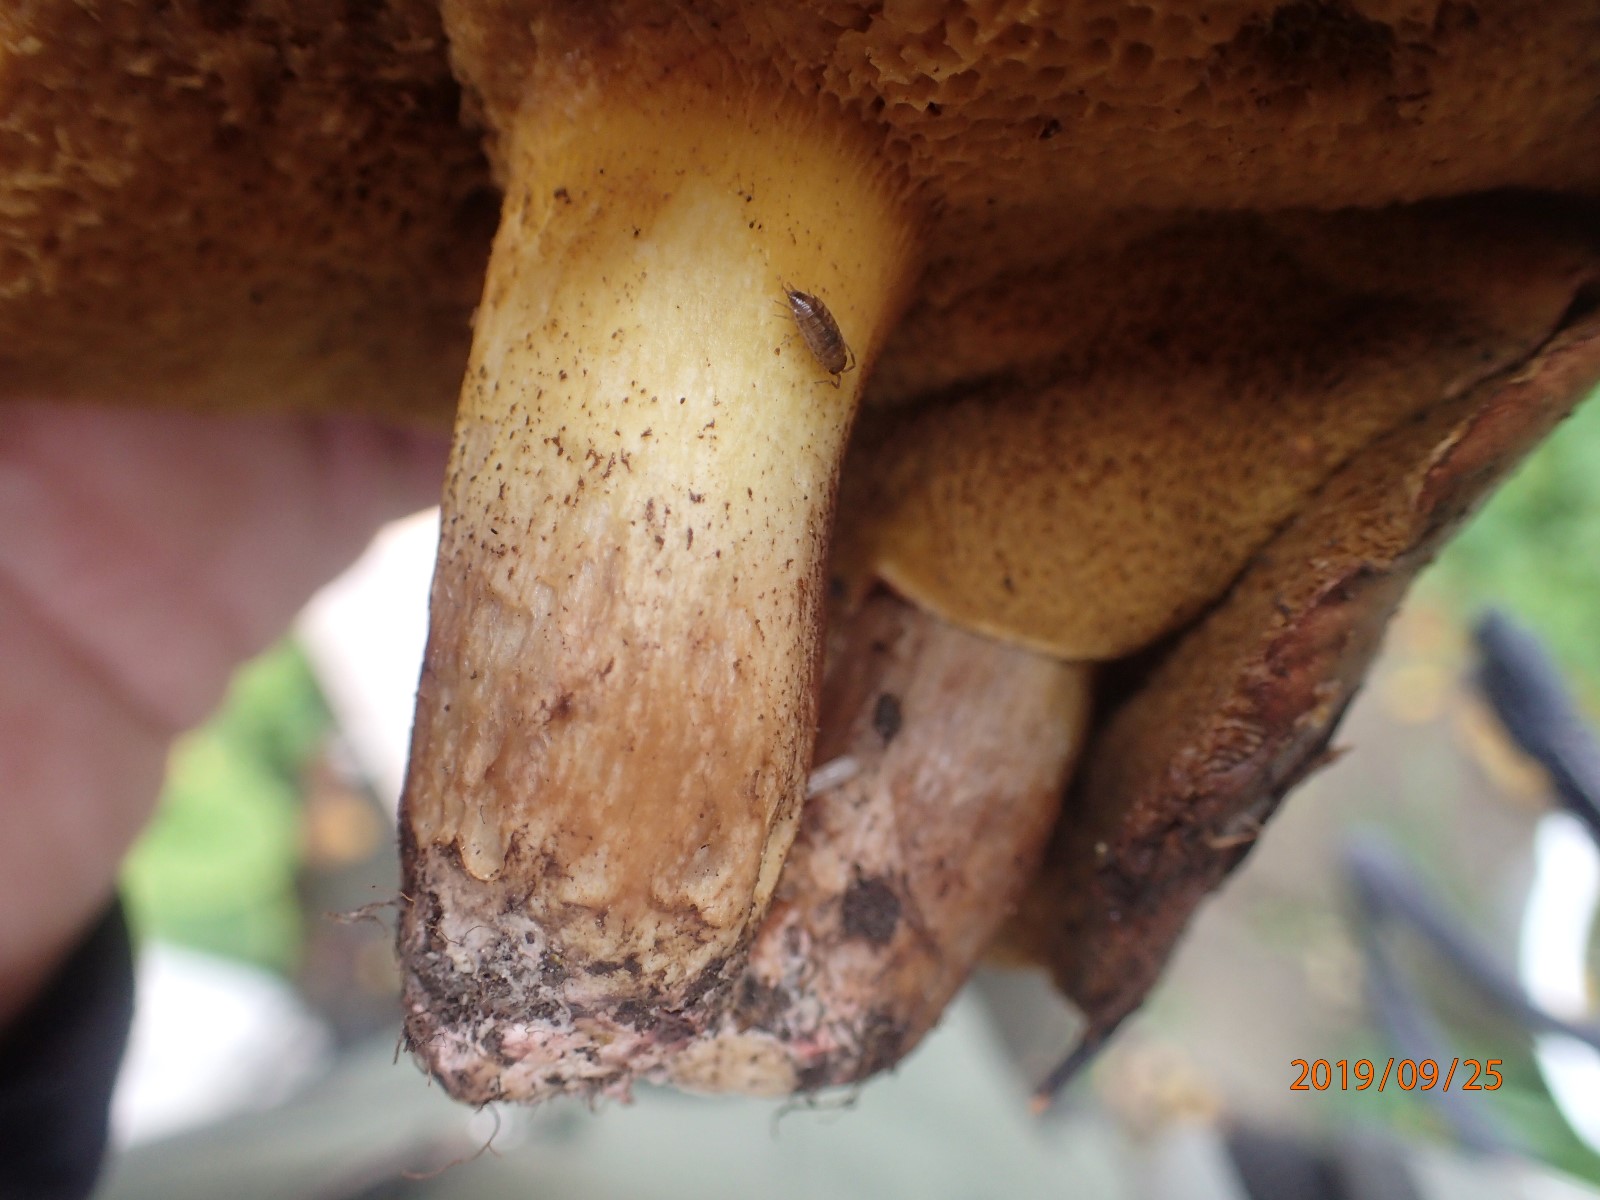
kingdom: Fungi
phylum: Basidiomycota
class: Agaricomycetes
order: Boletales
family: Suillaceae
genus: Suillus
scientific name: Suillus collinitus
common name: rosafodet slimrørhat
